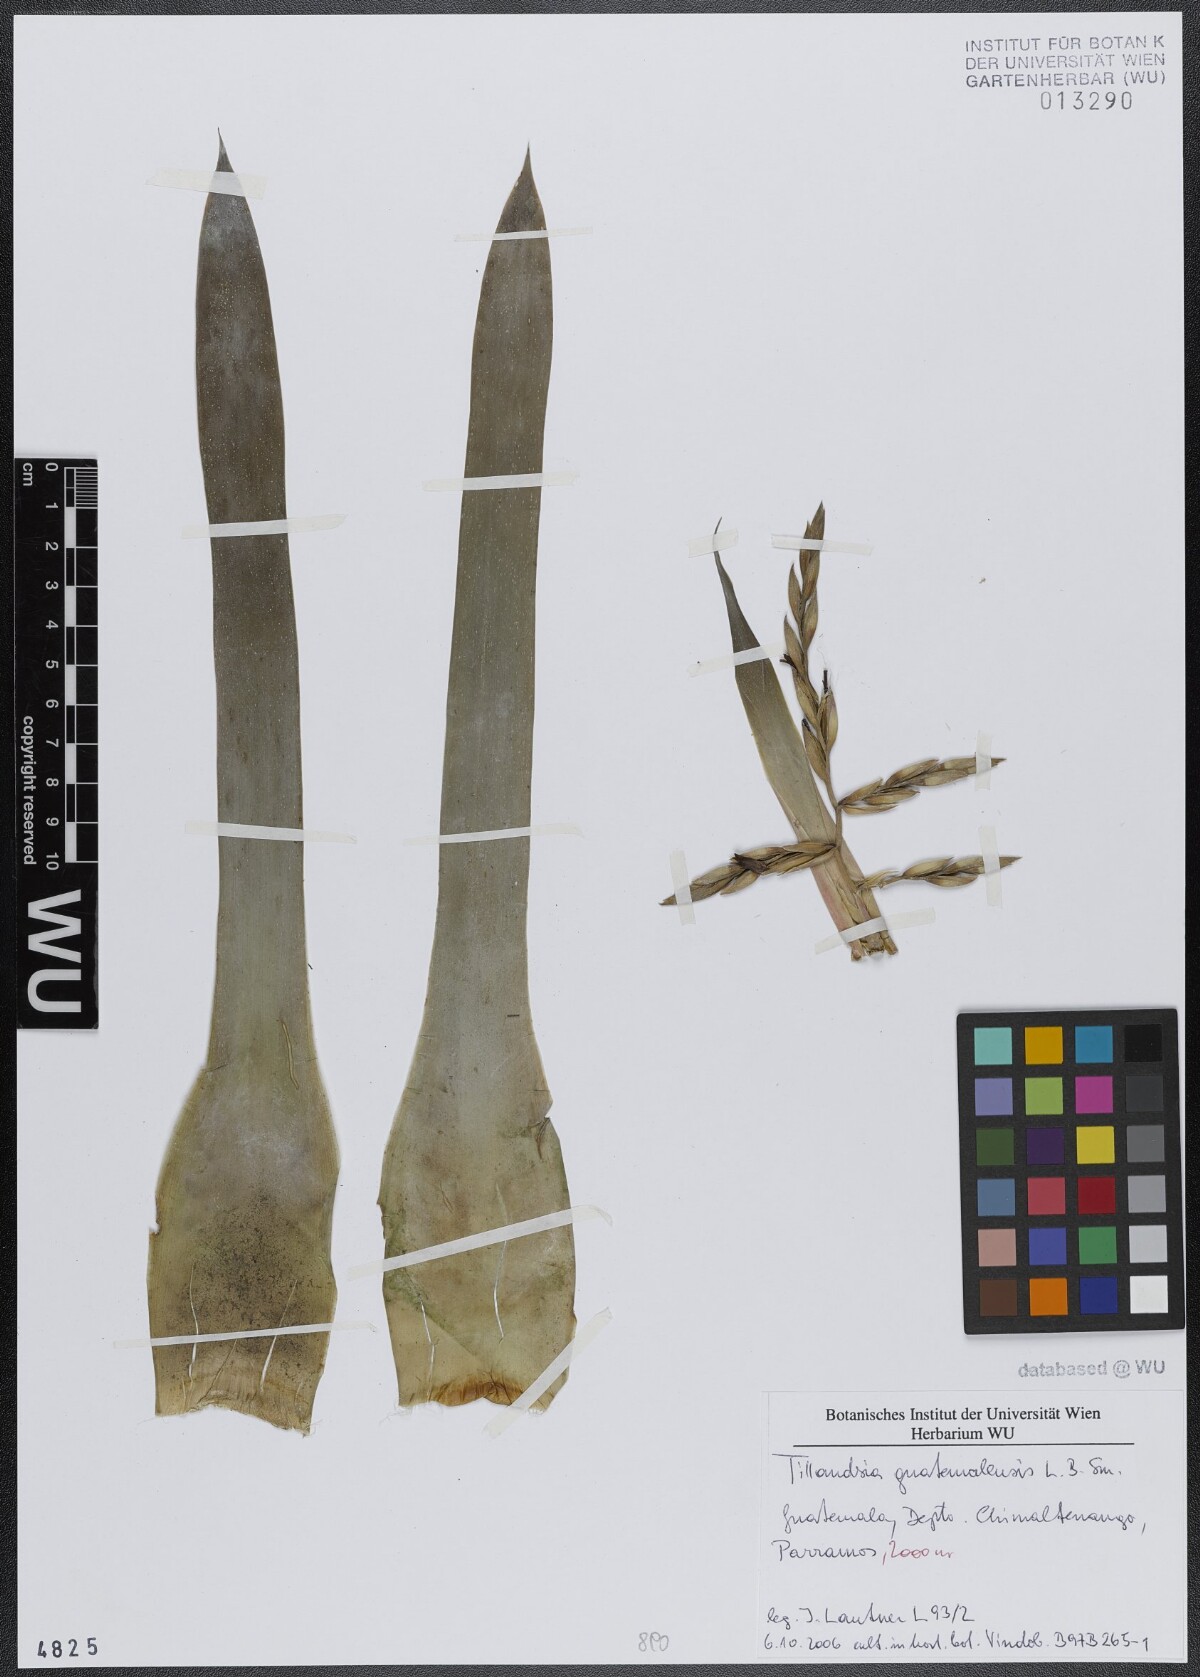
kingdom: Plantae
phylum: Tracheophyta
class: Liliopsida
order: Poales
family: Bromeliaceae
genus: Tillandsia
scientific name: Tillandsia guatemalensis
